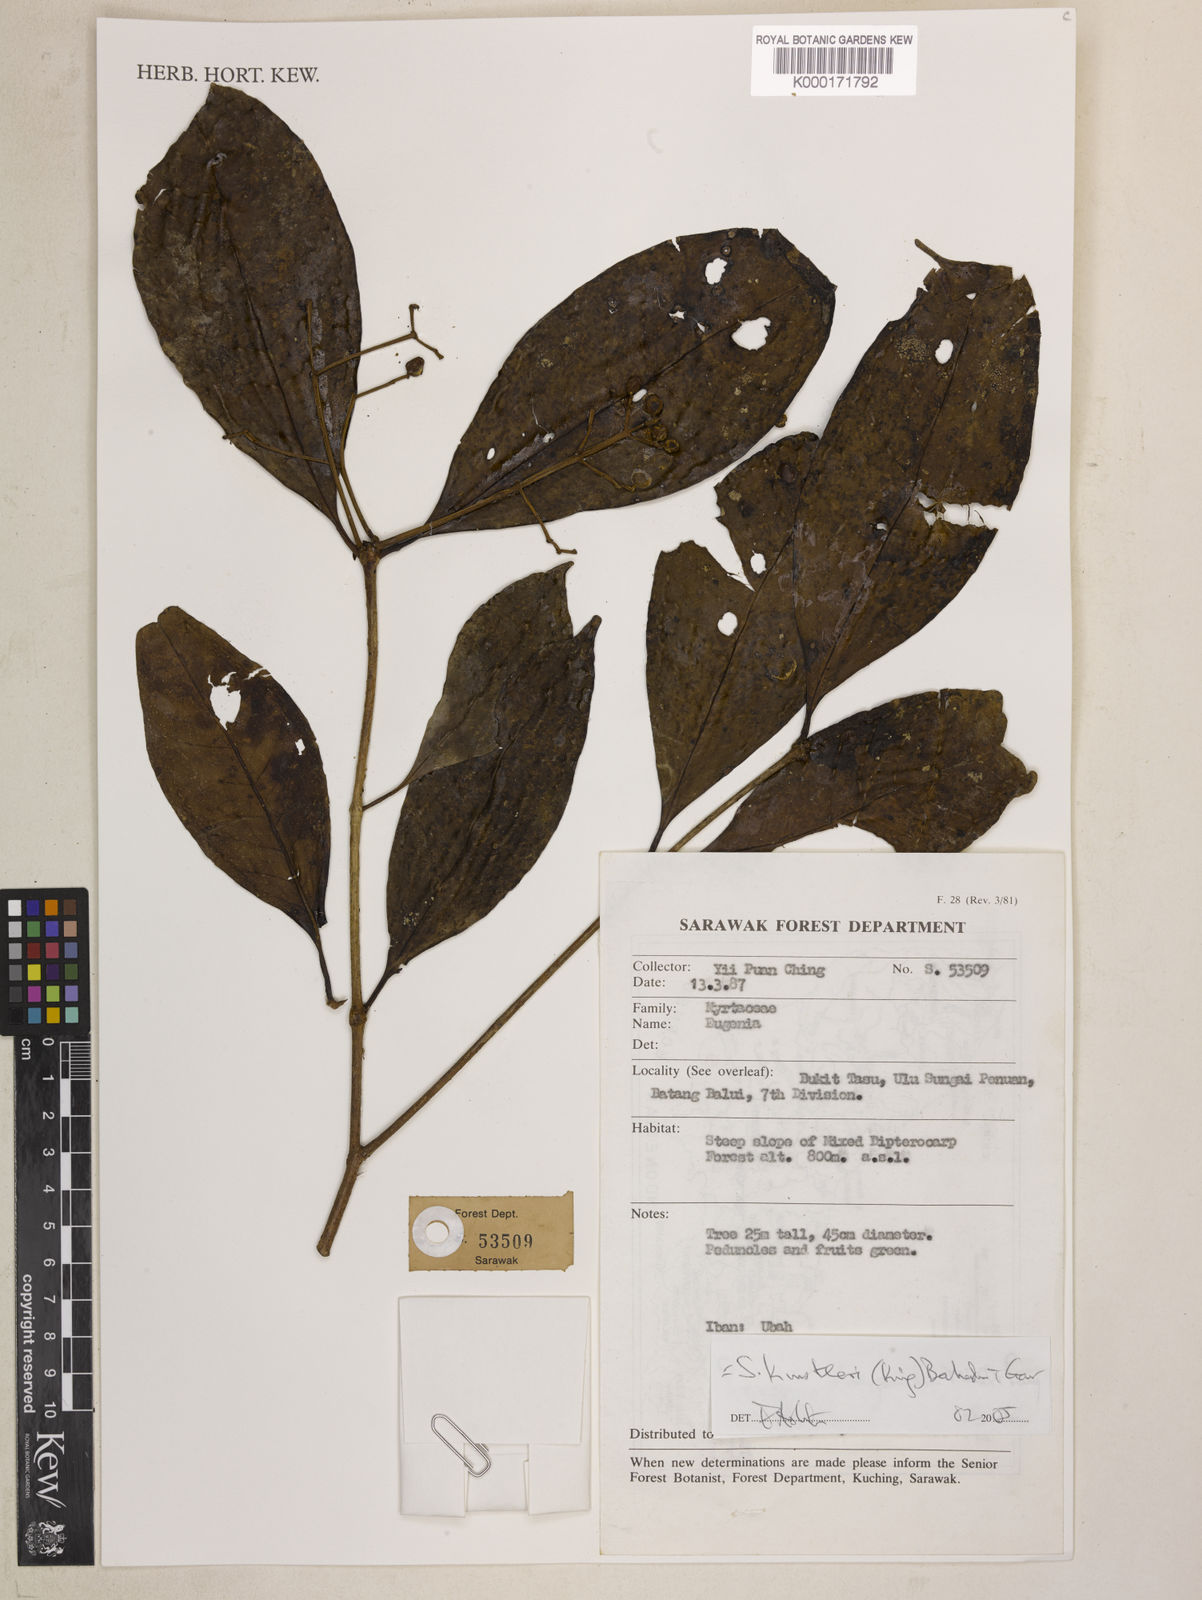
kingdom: Plantae
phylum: Tracheophyta
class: Magnoliopsida
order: Myrtales
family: Myrtaceae
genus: Syzygium
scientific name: Syzygium kunstleri
